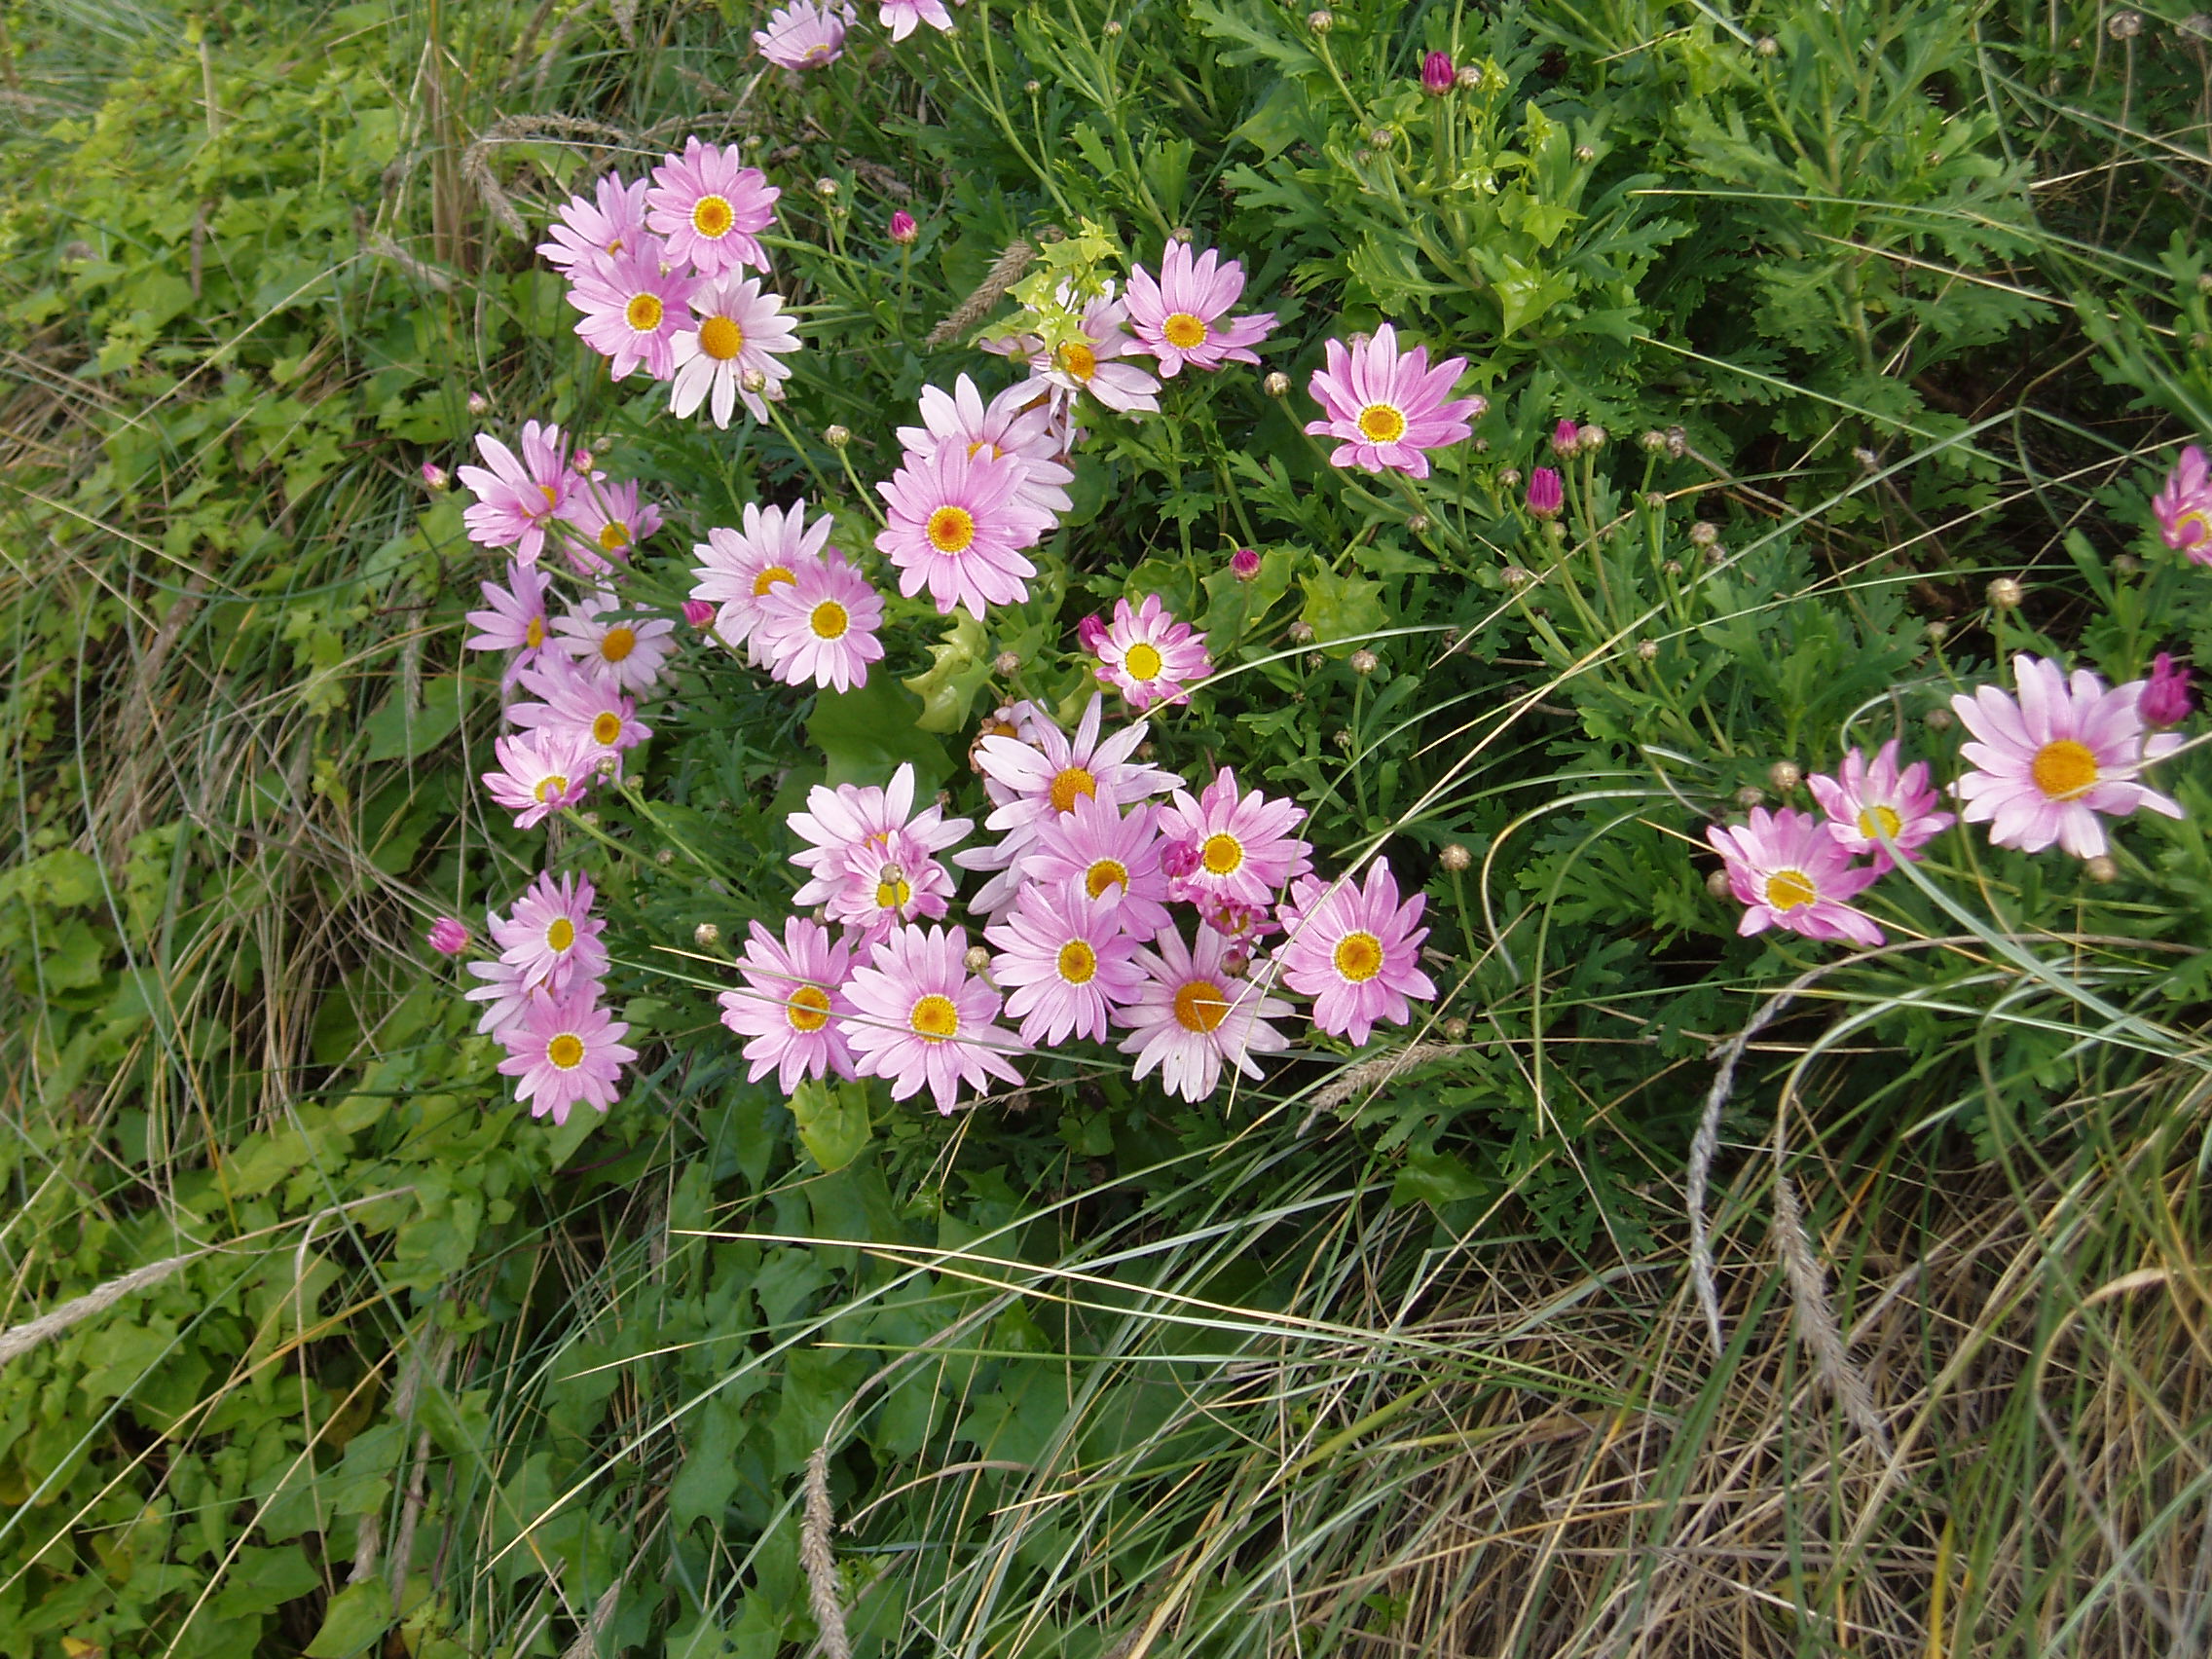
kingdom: Plantae
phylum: Tracheophyta
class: Magnoliopsida
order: Asterales
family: Asteraceae
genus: Argyranthemum
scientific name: Argyranthemum frutescens
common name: Paris daisy
